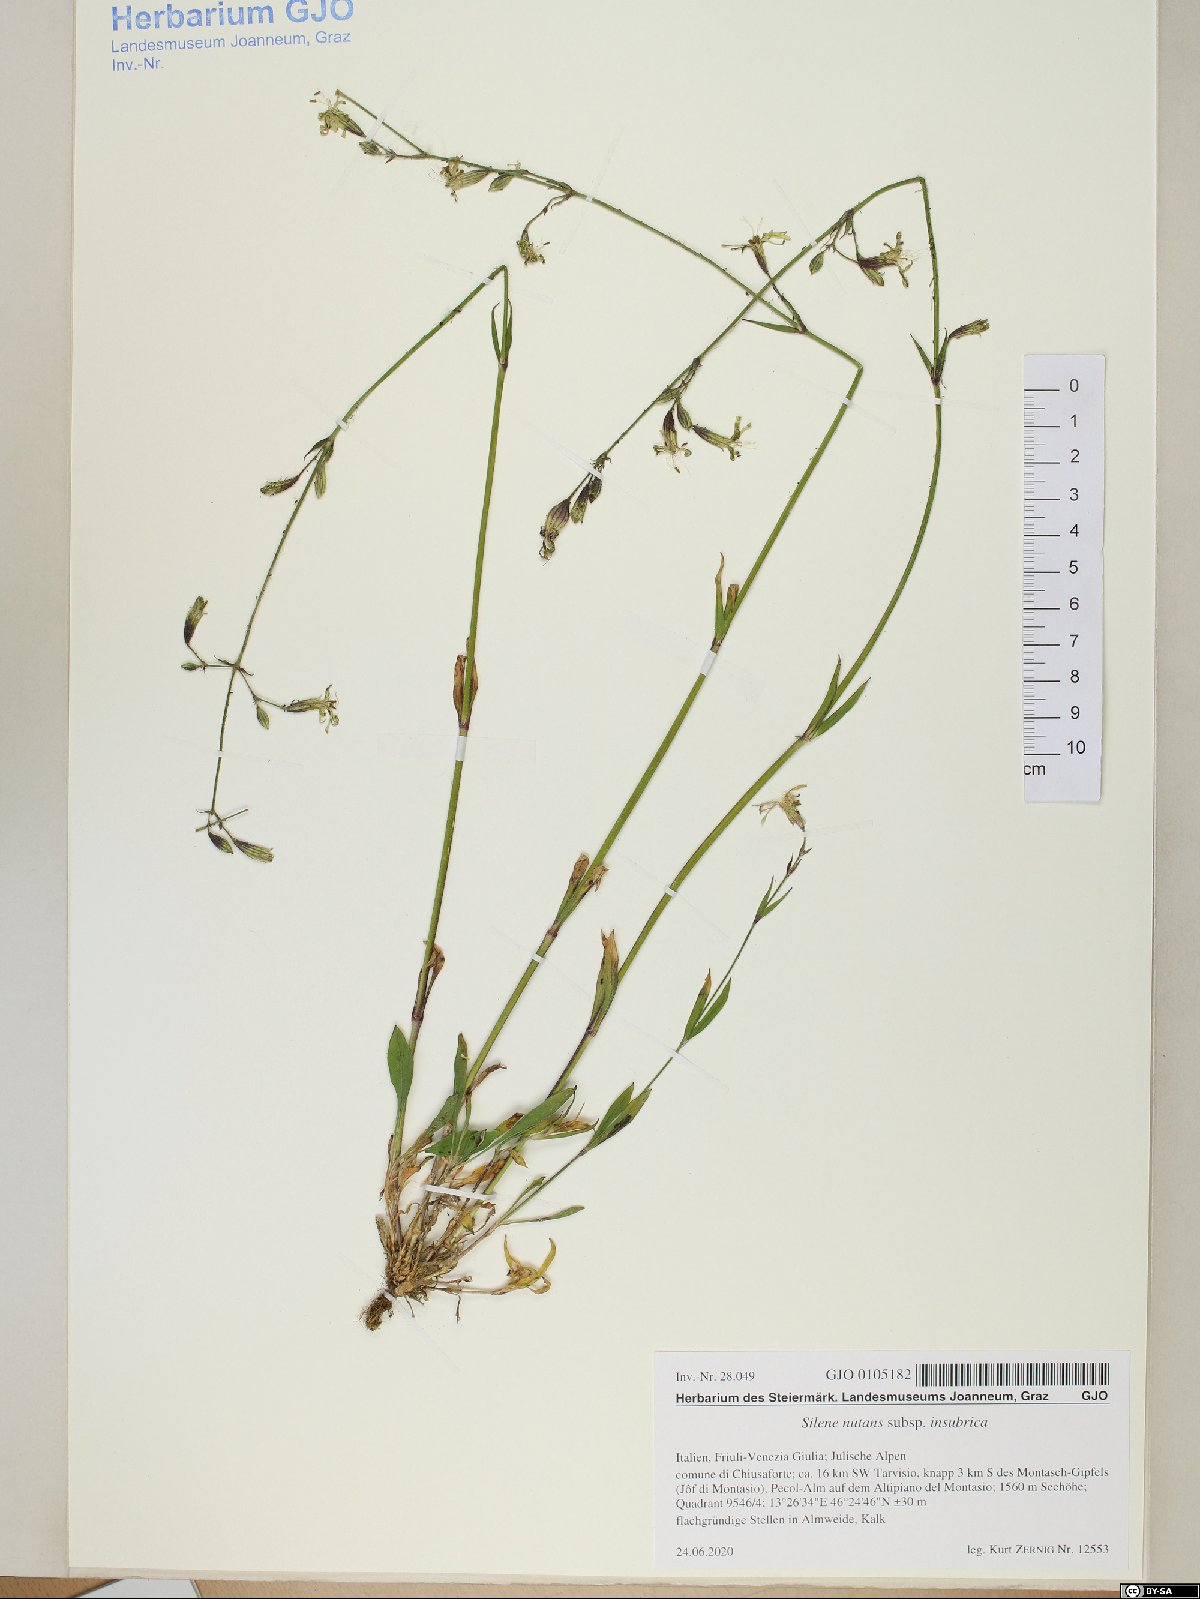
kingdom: Plantae
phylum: Tracheophyta
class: Magnoliopsida
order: Caryophyllales
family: Caryophyllaceae
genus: Silene
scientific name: Silene nutans
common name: Nottingham catchfly
